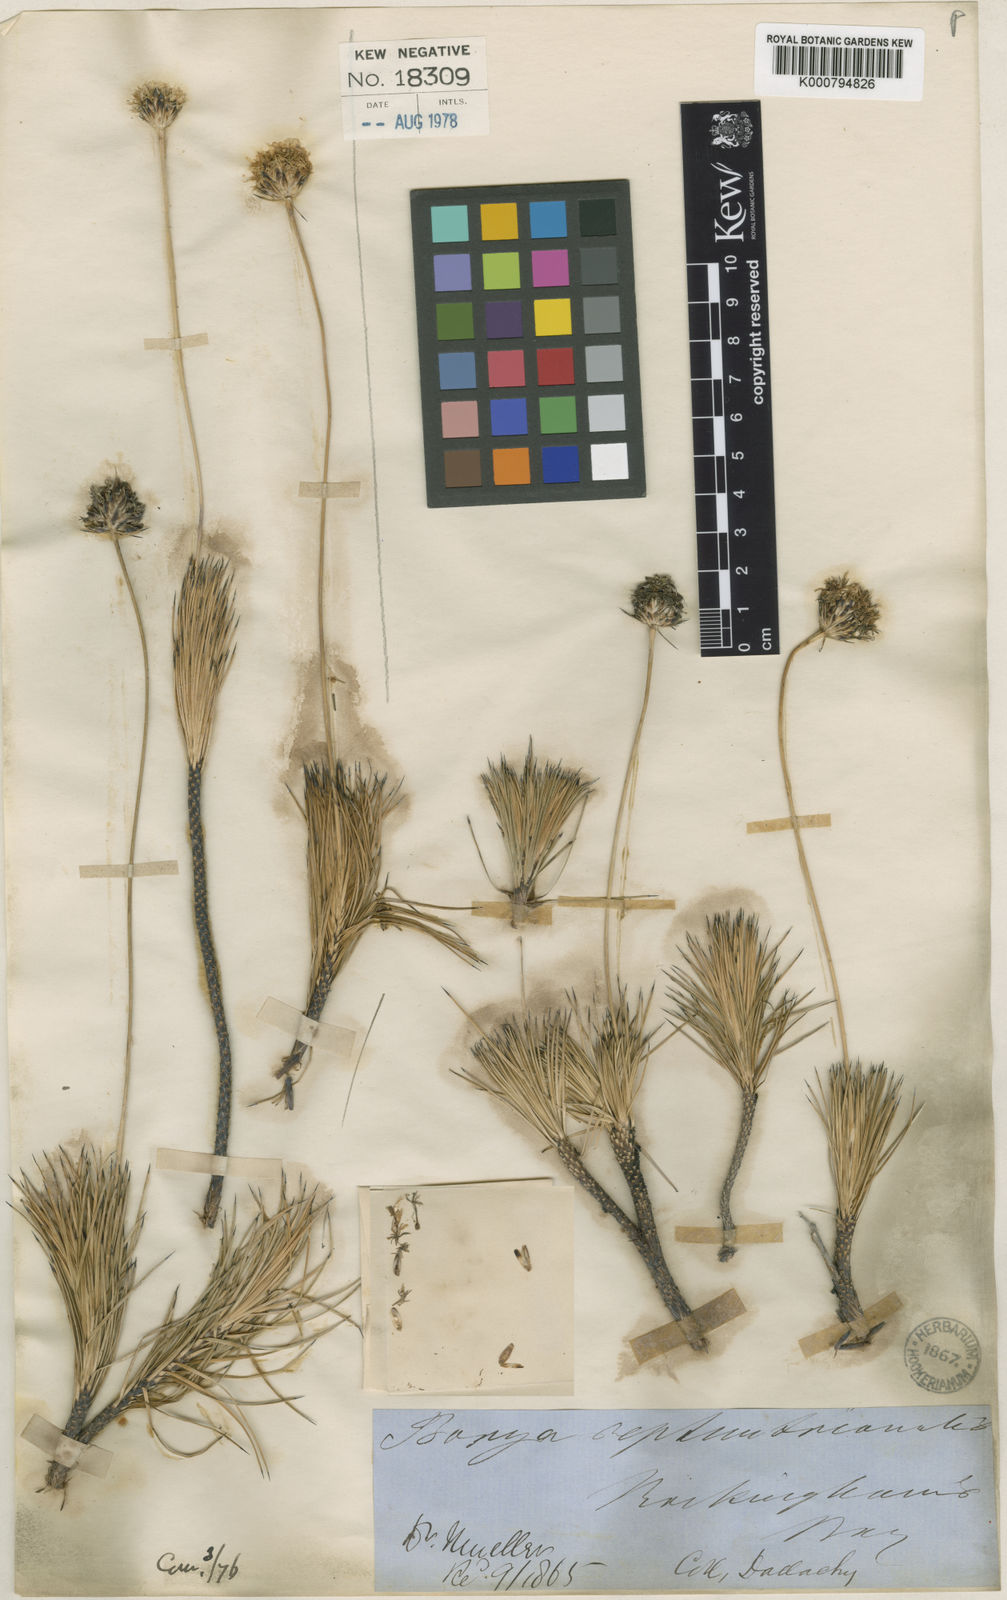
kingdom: Plantae
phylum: Tracheophyta
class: Liliopsida
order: Asparagales
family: Boryaceae
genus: Borya
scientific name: Borya septentrionalis
